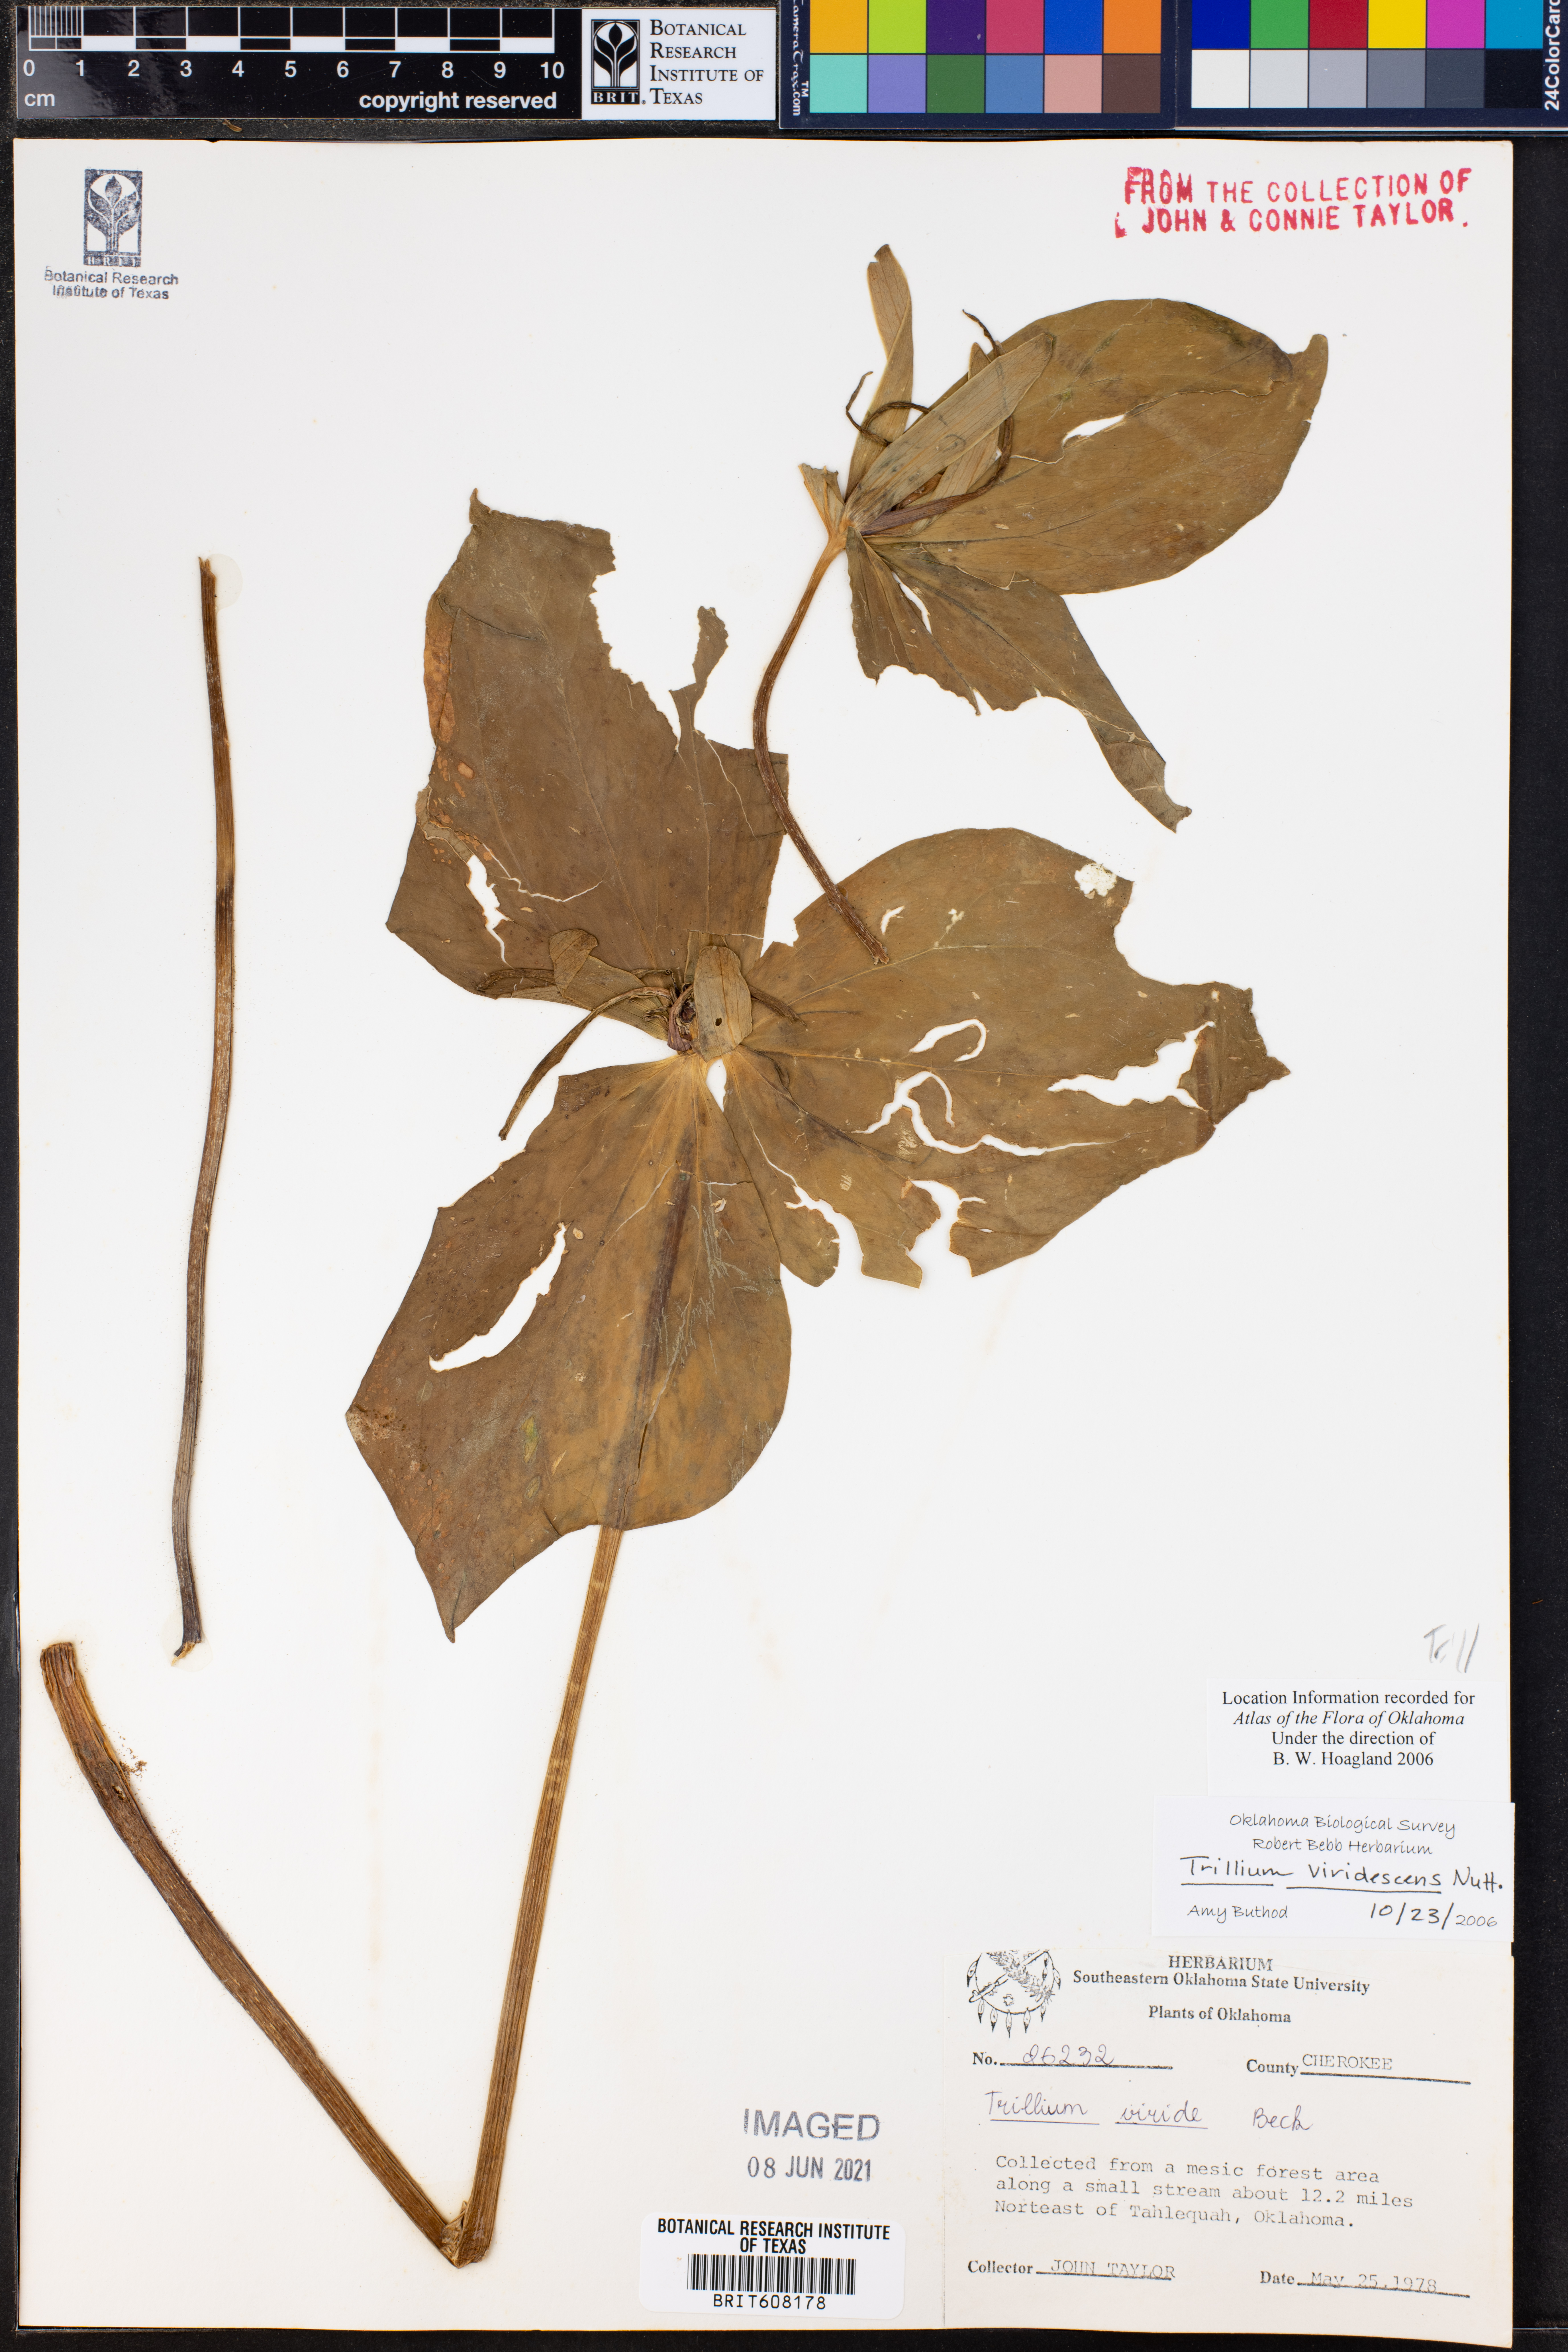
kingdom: Plantae
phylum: Tracheophyta
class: Liliopsida
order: Liliales
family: Melanthiaceae
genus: Trillium
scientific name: Trillium viridescens
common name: Ozark green trillium
